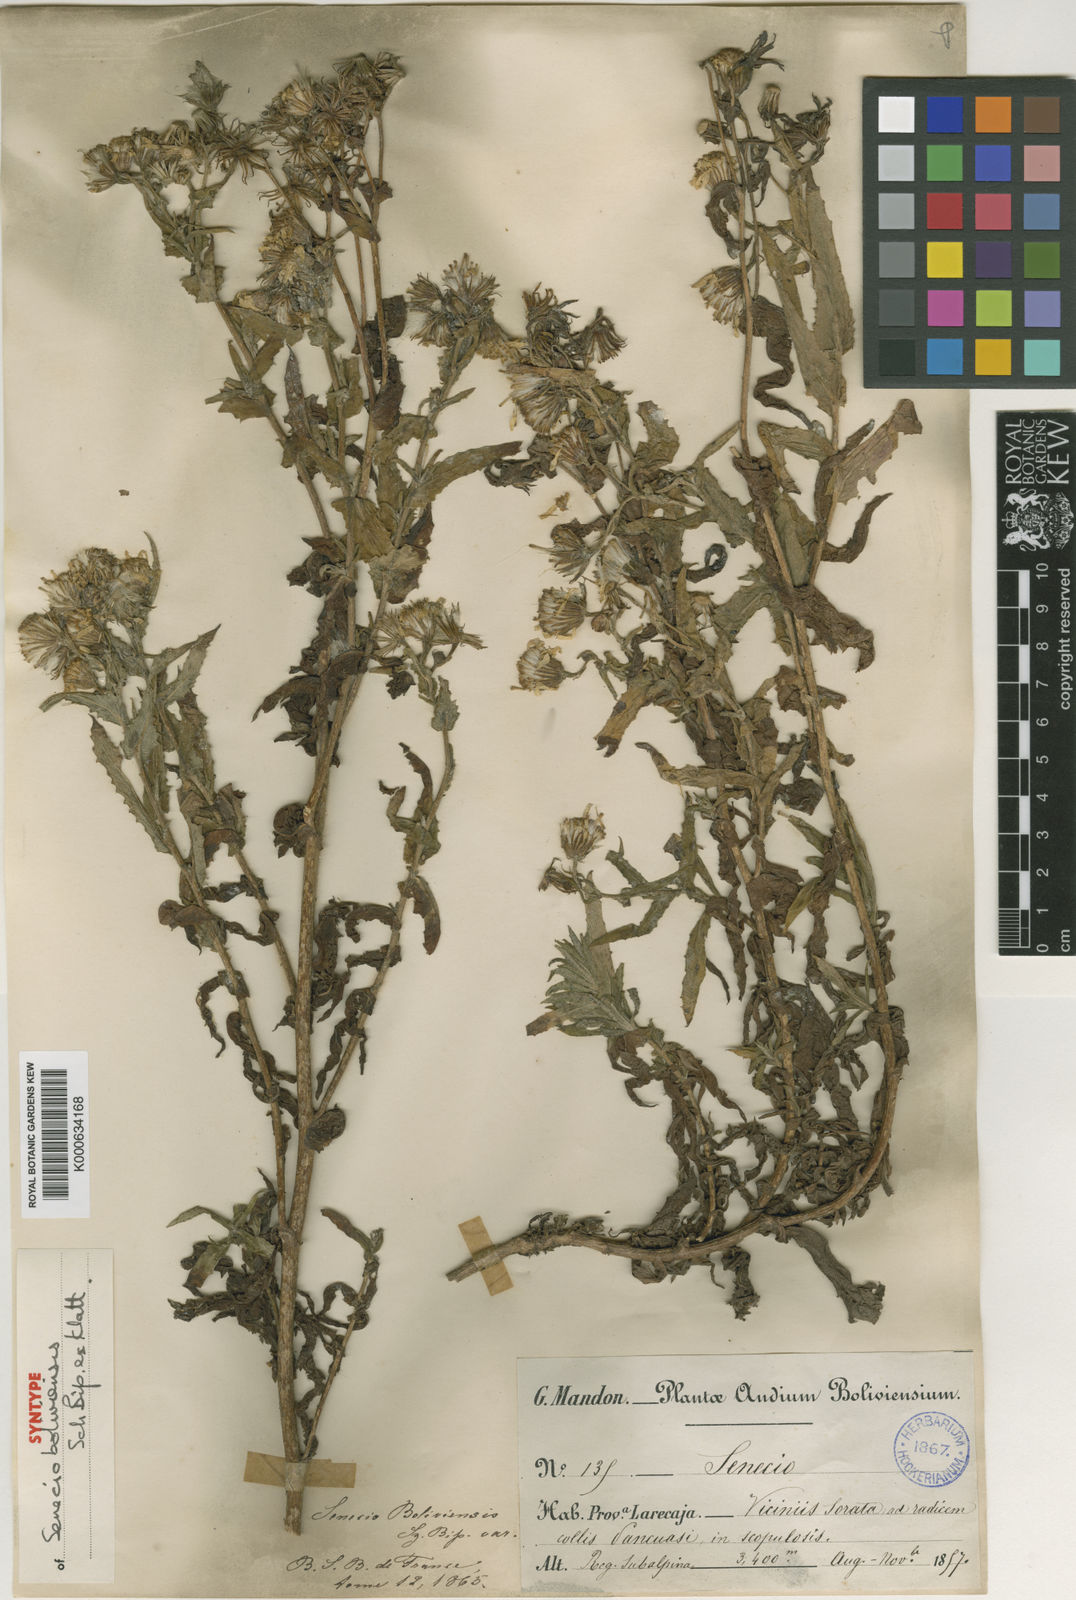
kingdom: Plantae
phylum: Tracheophyta
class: Magnoliopsida
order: Asterales
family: Asteraceae
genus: Senecio
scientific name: Senecio boliviensis
